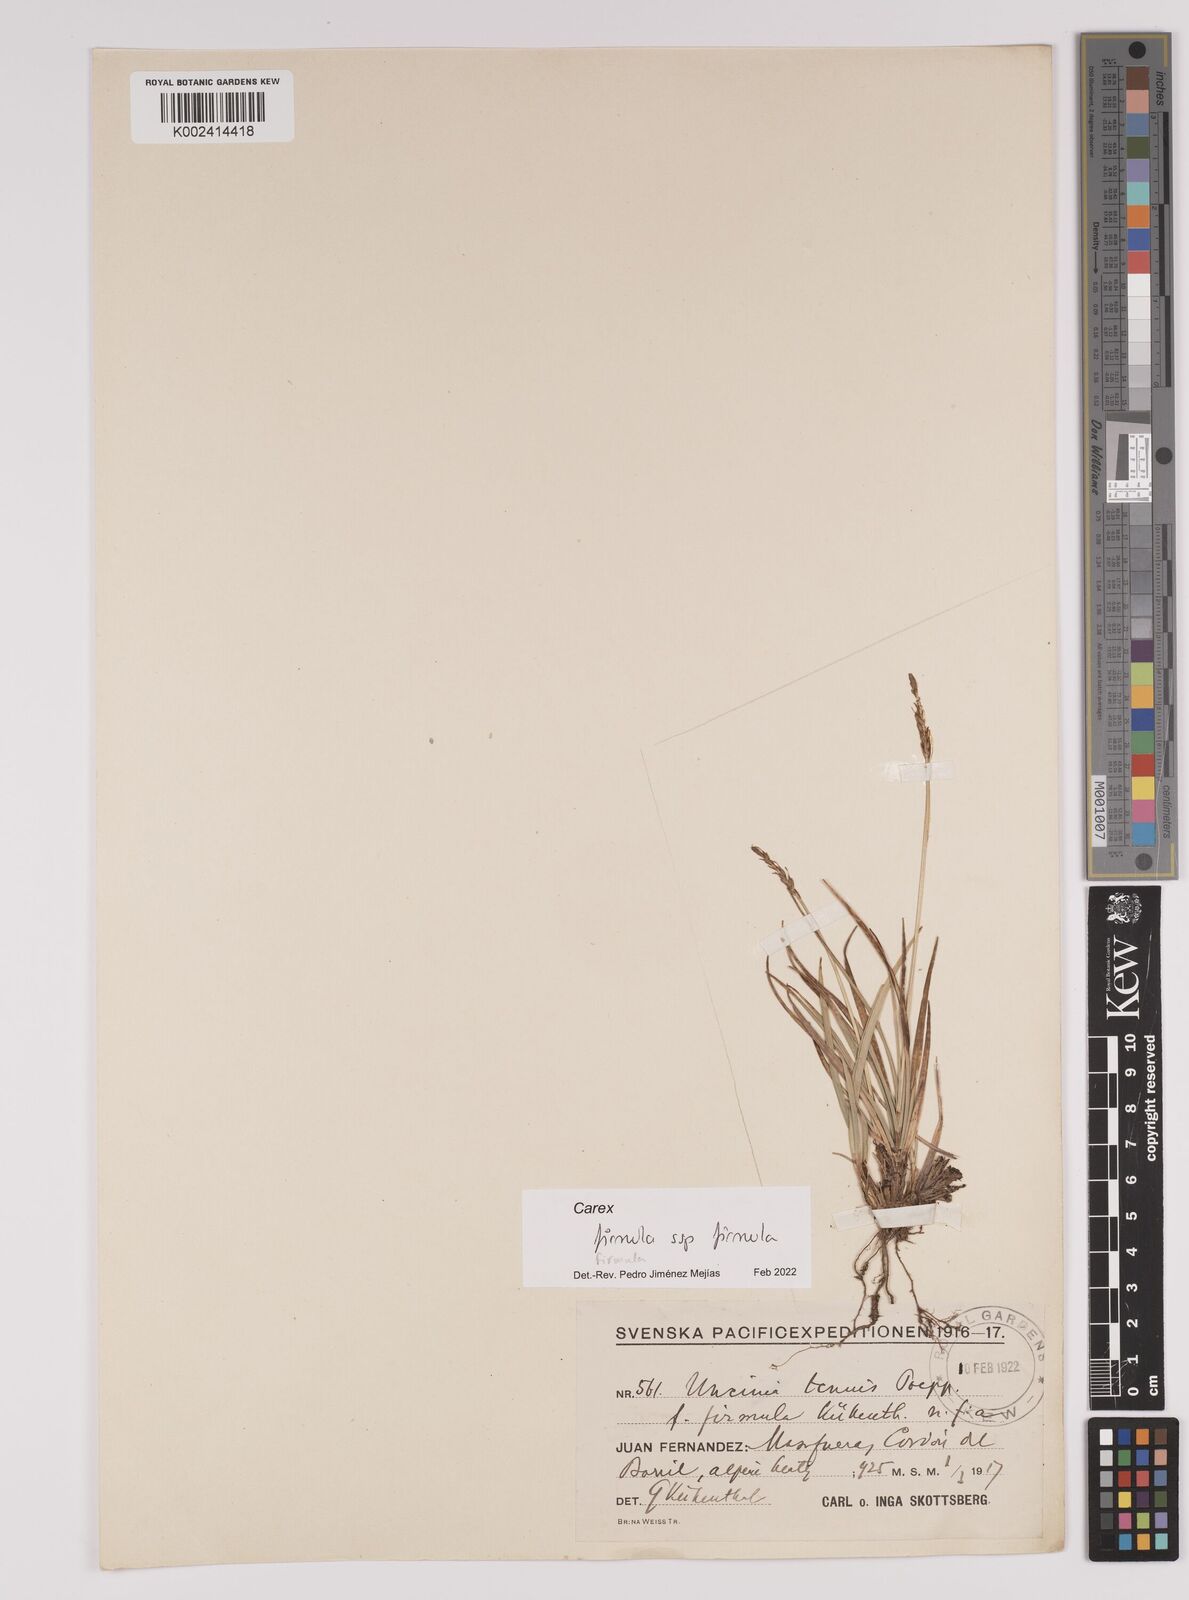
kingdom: Fungi
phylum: Ascomycota
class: Leotiomycetes
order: Helotiales
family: Hamatocanthoscyphaceae
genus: Uncinia
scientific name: Uncinia
